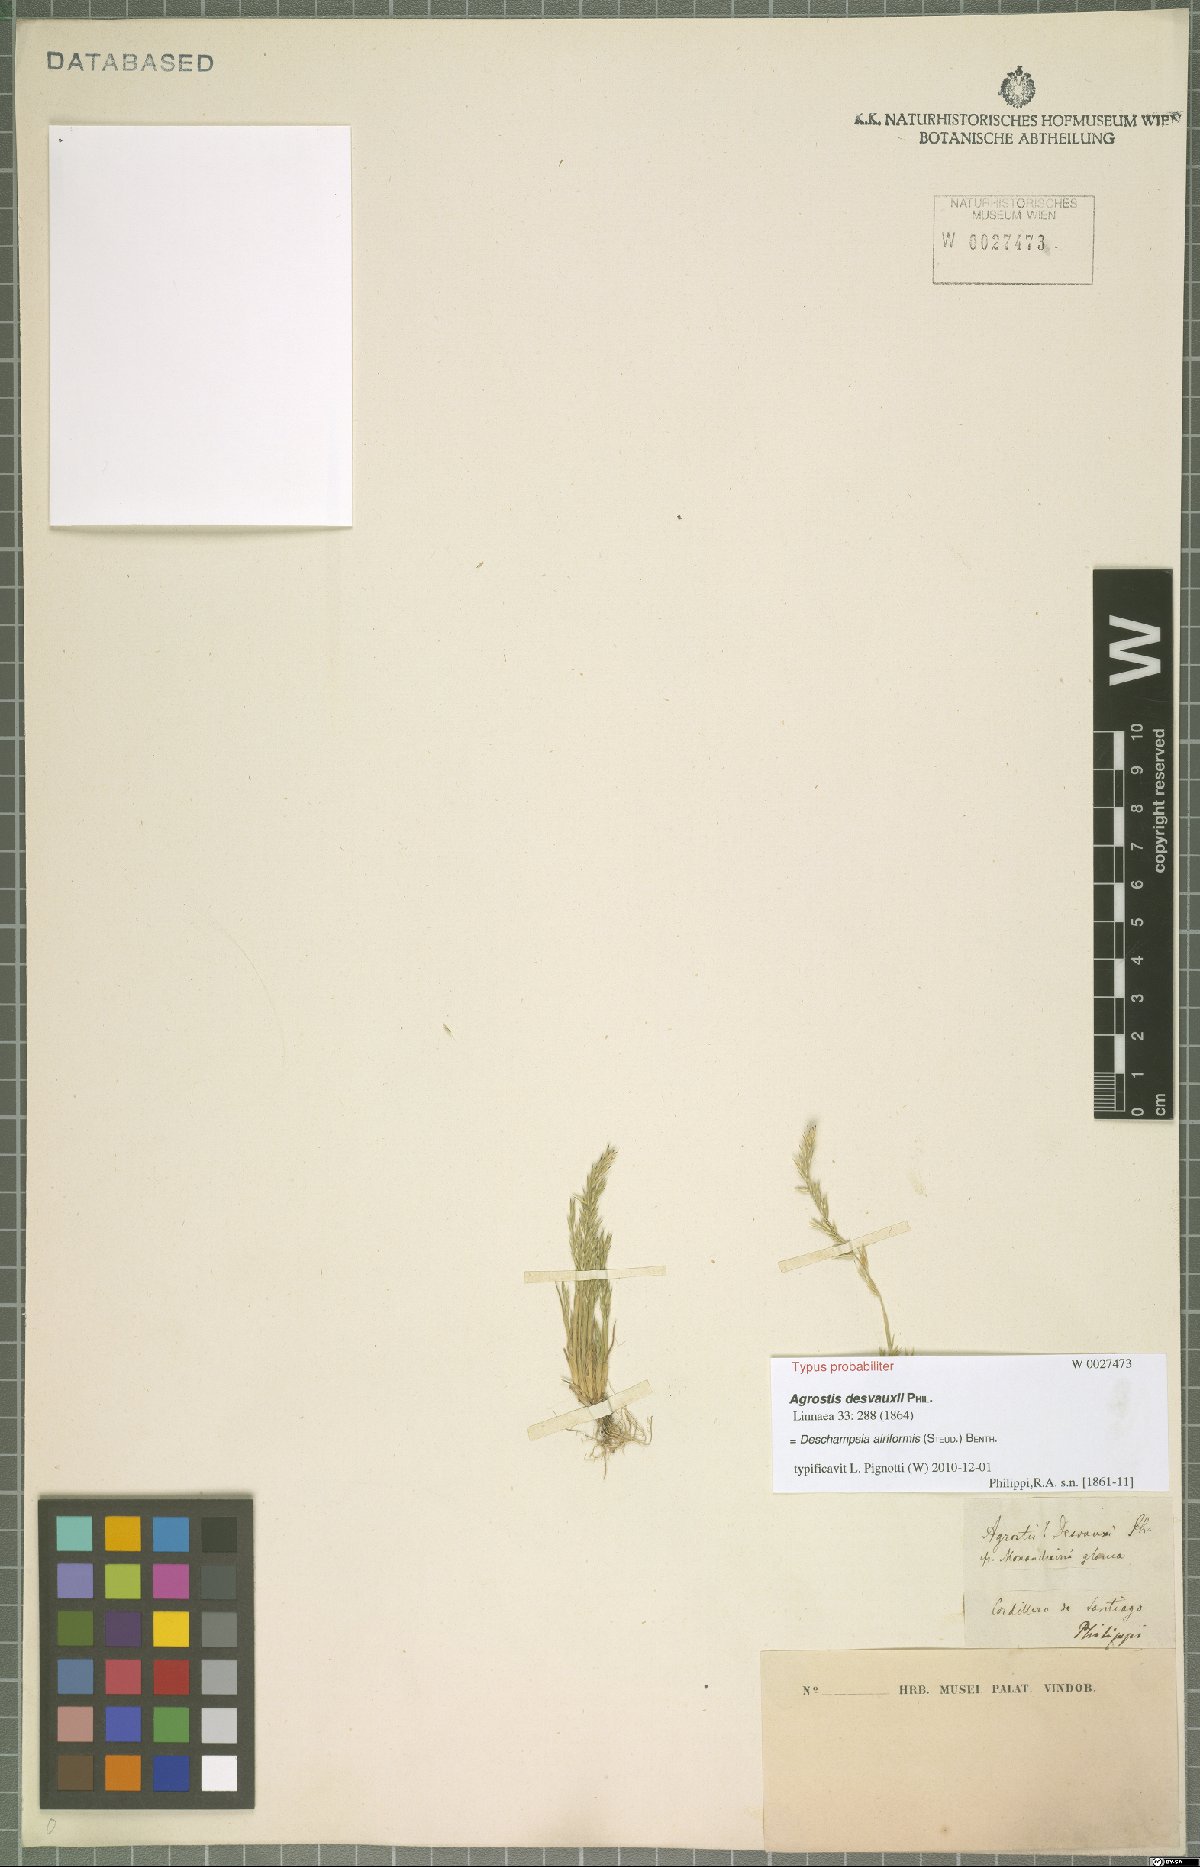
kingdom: Plantae
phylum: Tracheophyta
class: Liliopsida
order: Poales
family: Poaceae
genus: Deschampsia
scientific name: Deschampsia airiformis
